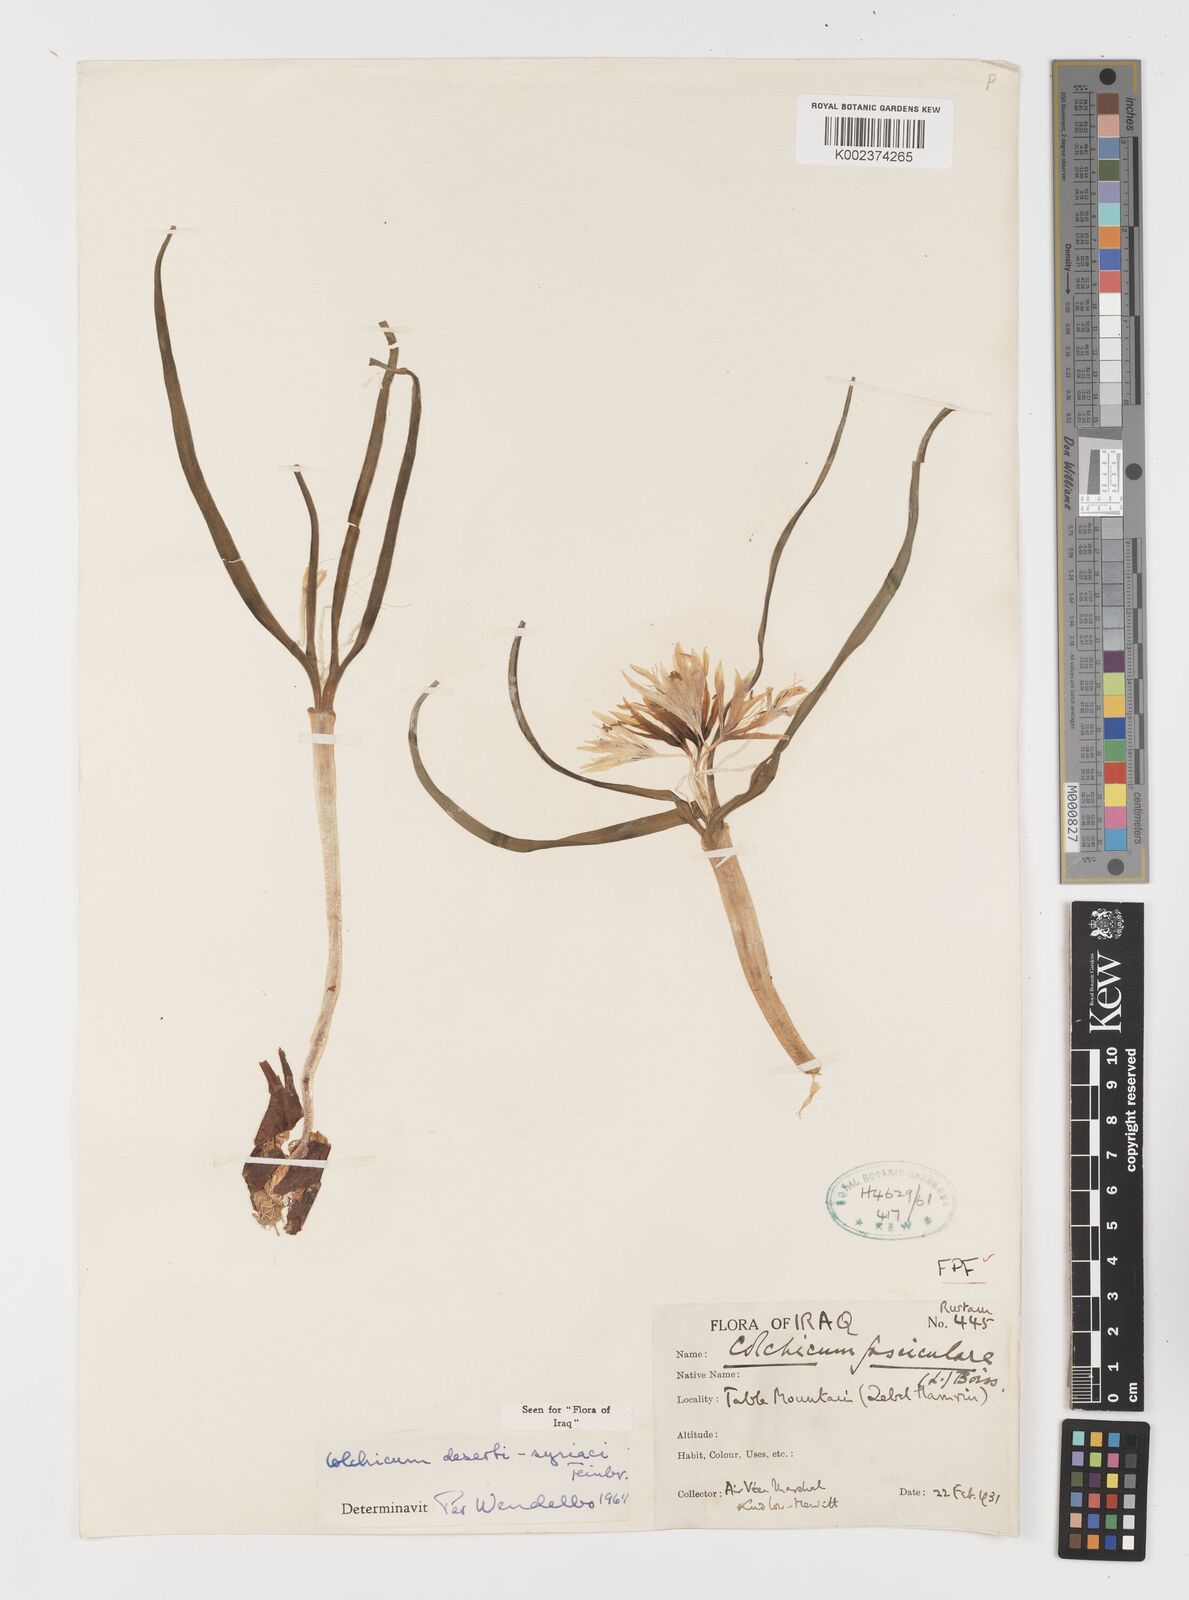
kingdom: Plantae
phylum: Tracheophyta
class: Liliopsida
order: Liliales
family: Colchicaceae
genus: Colchicum
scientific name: Colchicum schimperi
